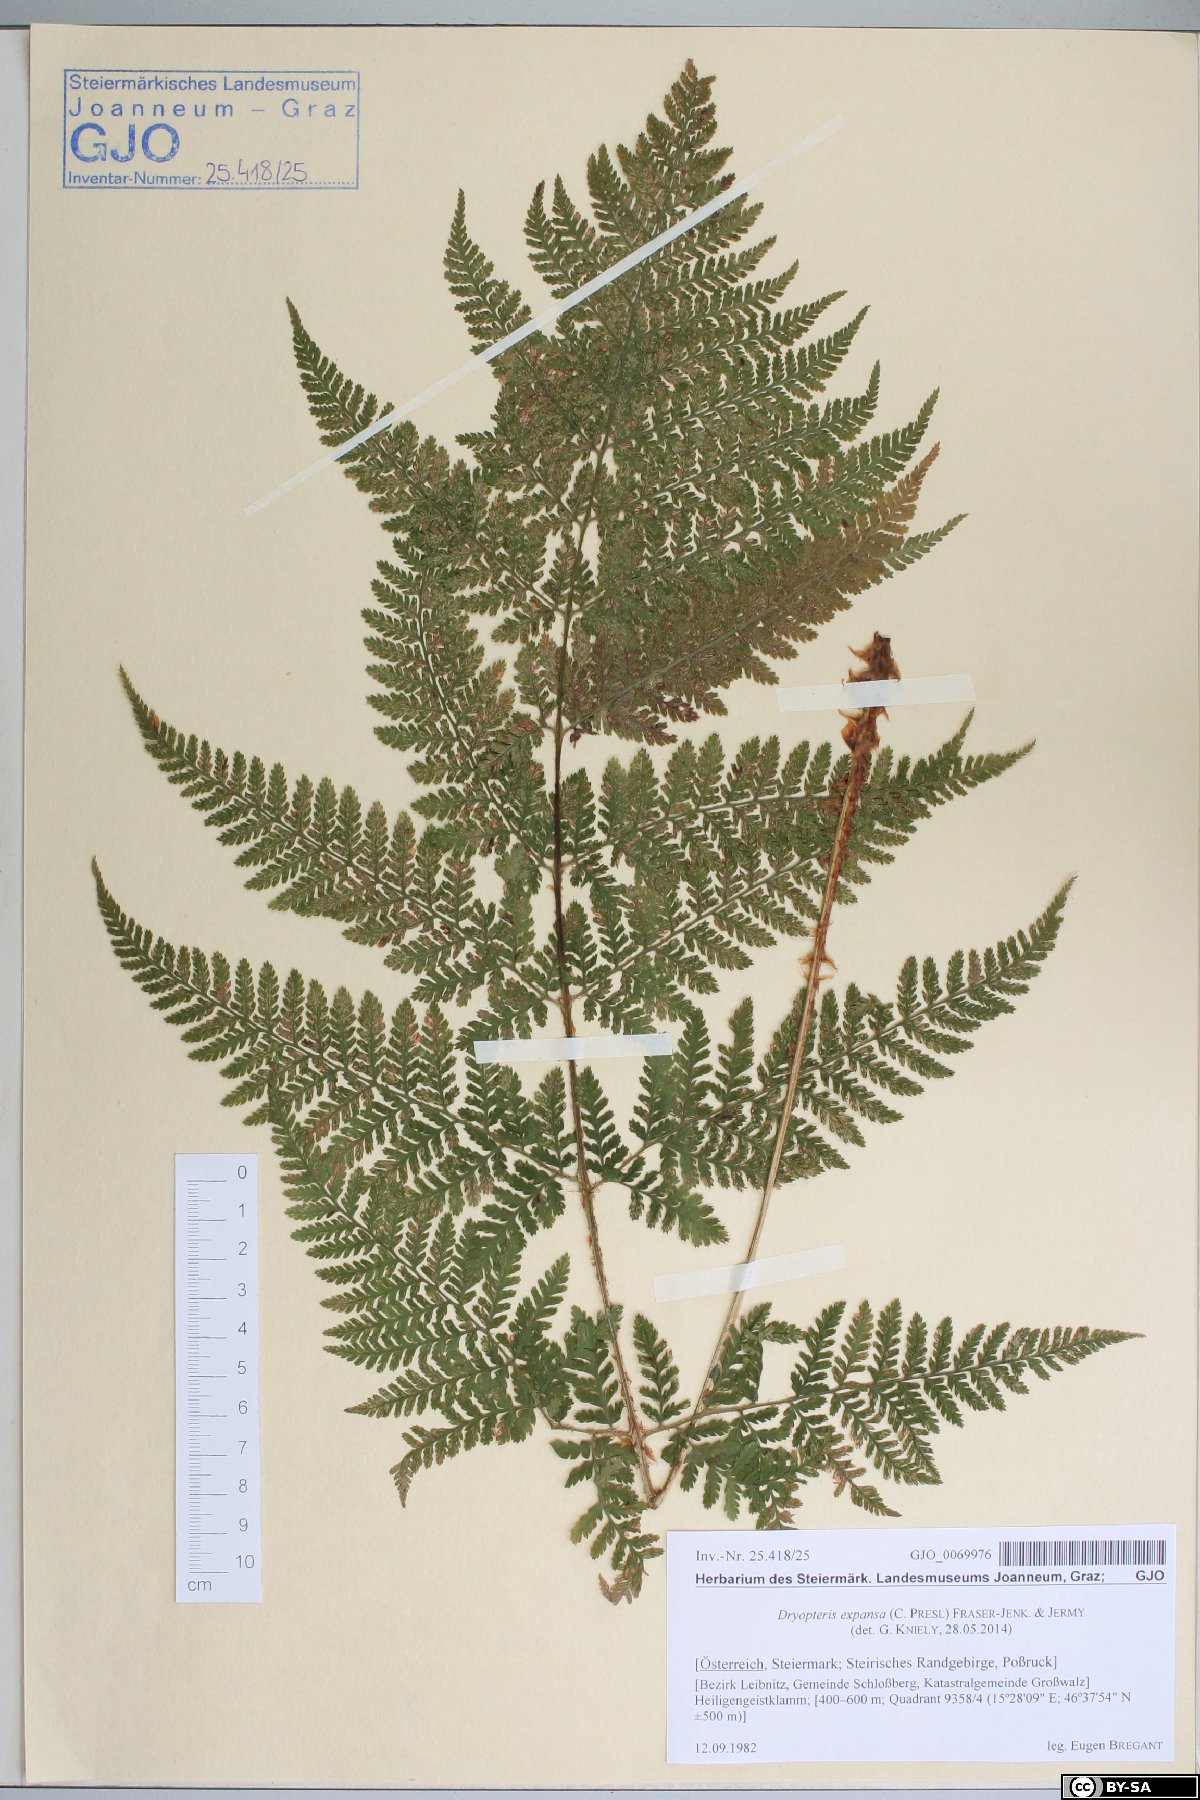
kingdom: Plantae
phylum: Tracheophyta
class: Polypodiopsida
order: Polypodiales
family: Dryopteridaceae
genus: Dryopteris
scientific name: Dryopteris expansa
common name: Northern buckler fern
